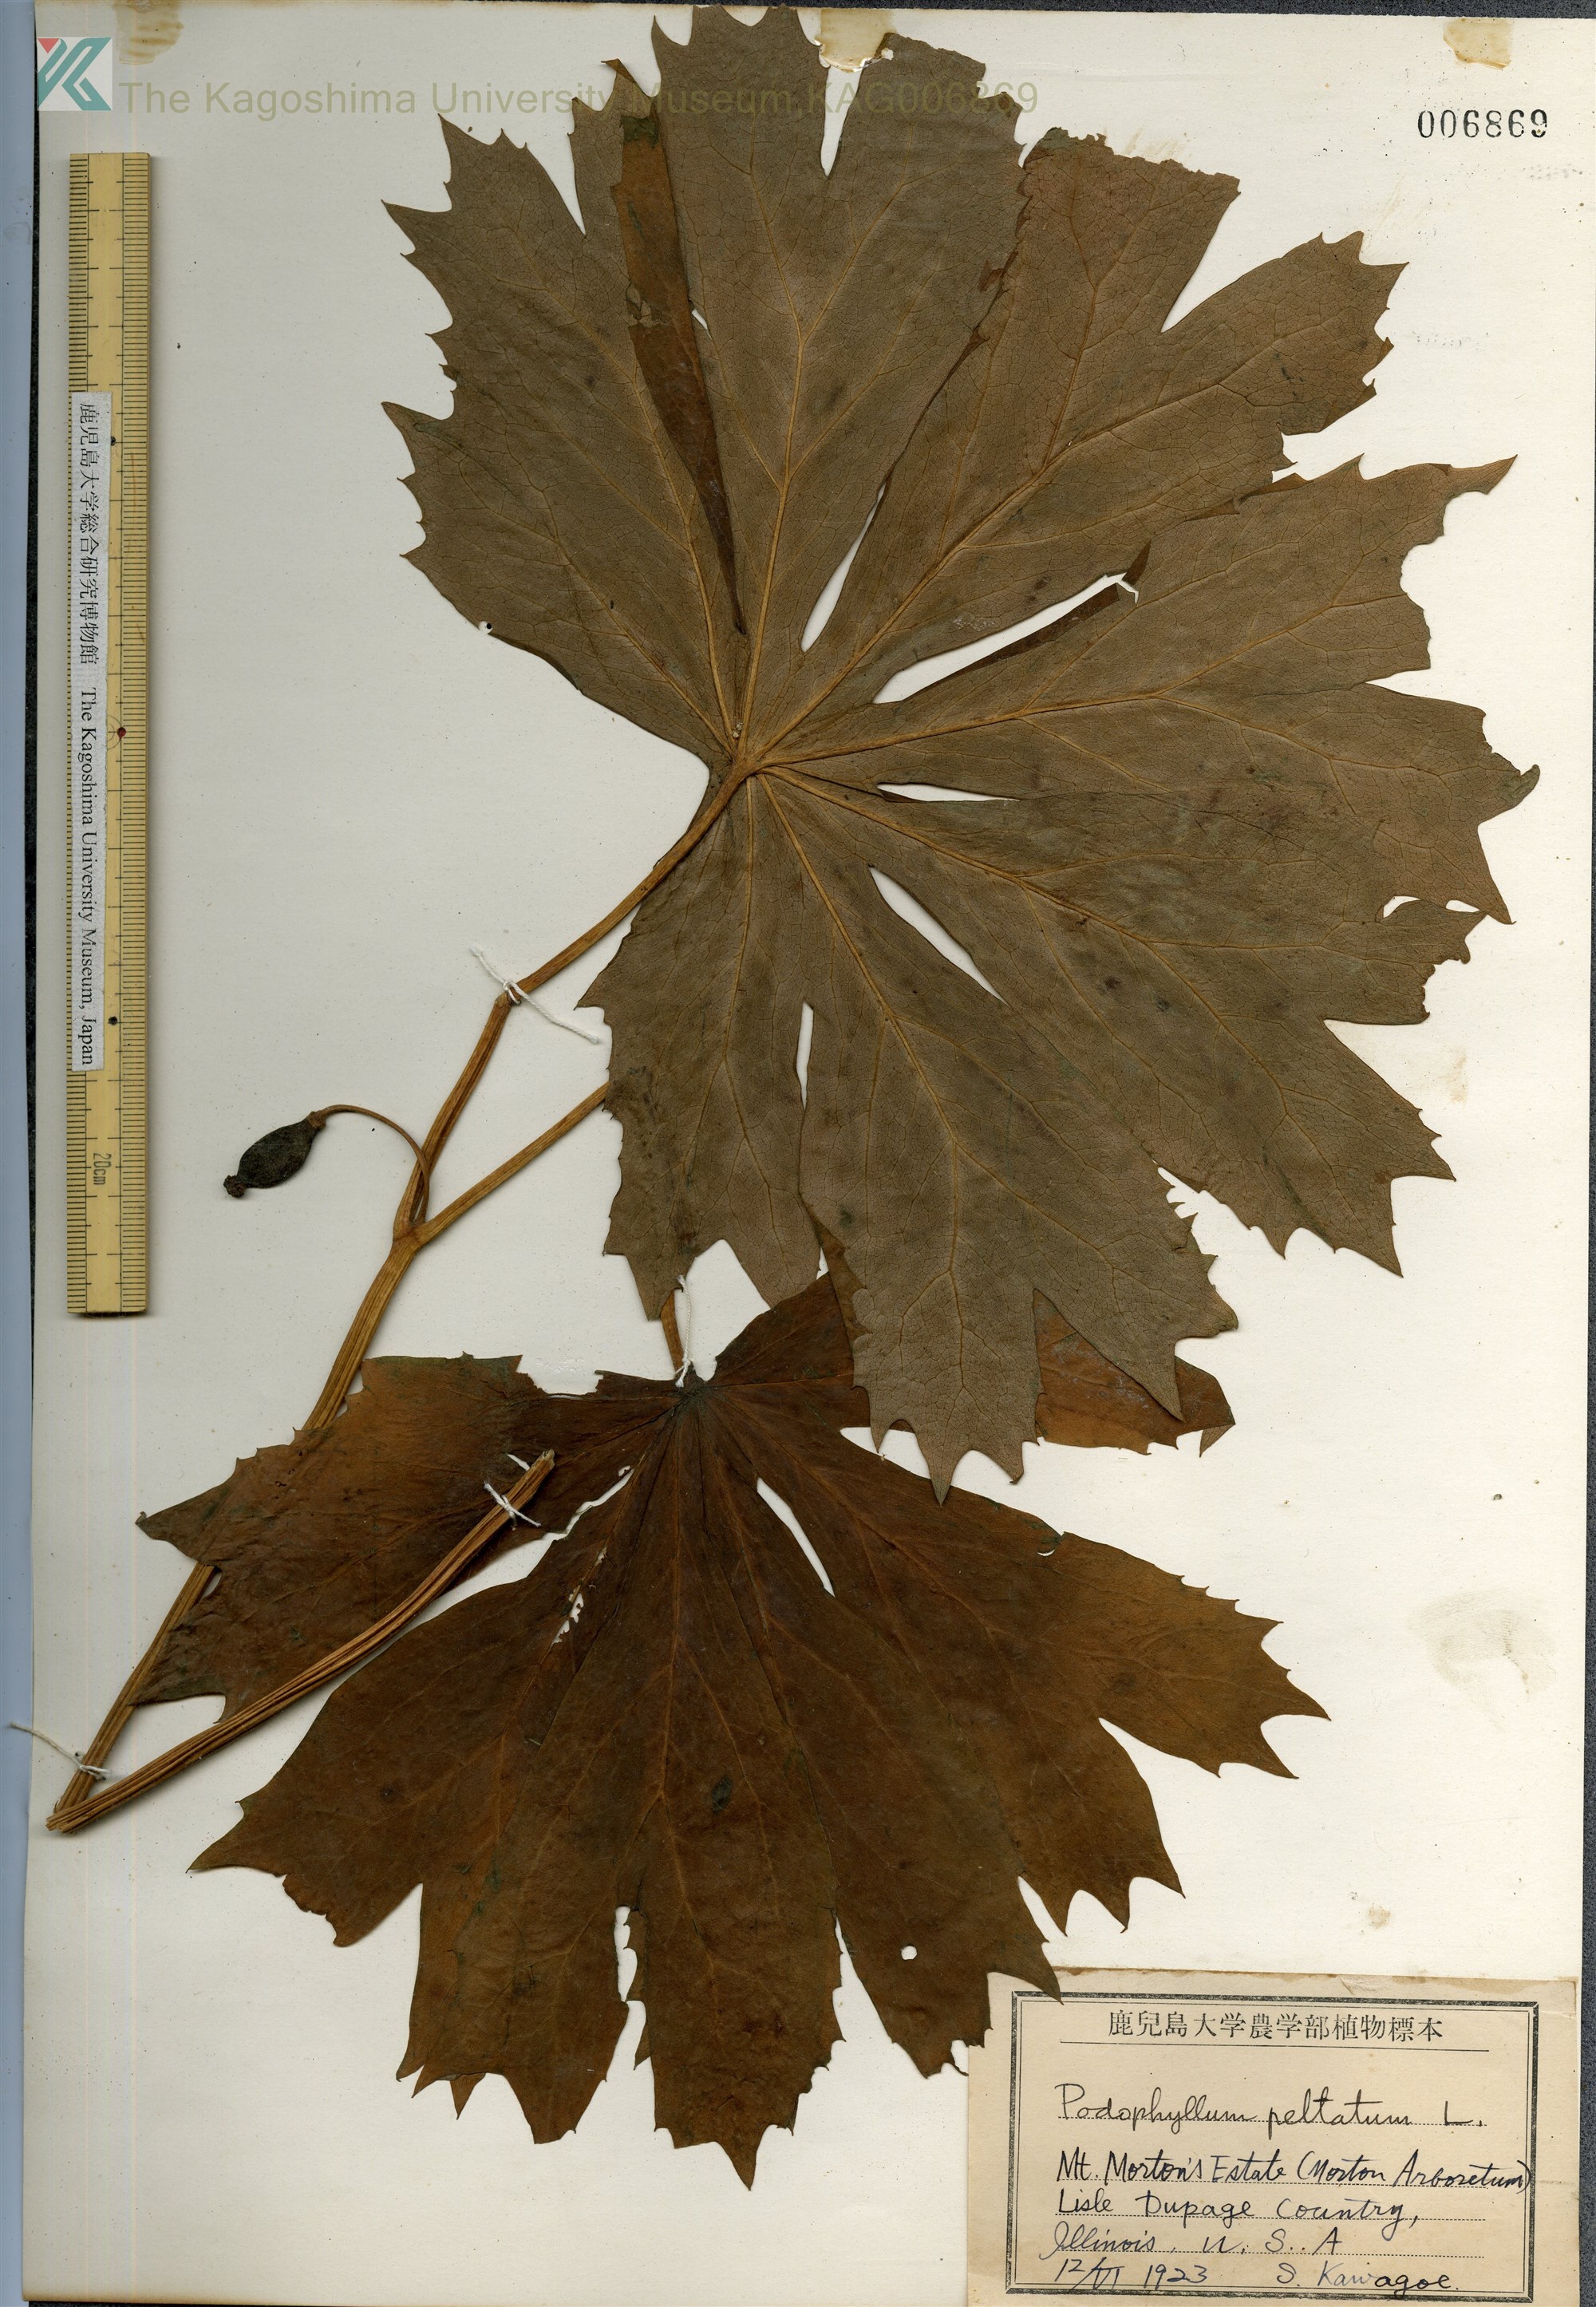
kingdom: Plantae
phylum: Tracheophyta
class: Magnoliopsida
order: Ranunculales
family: Berberidaceae
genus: Podophyllum
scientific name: Podophyllum peltatum
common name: Wild mandrake
